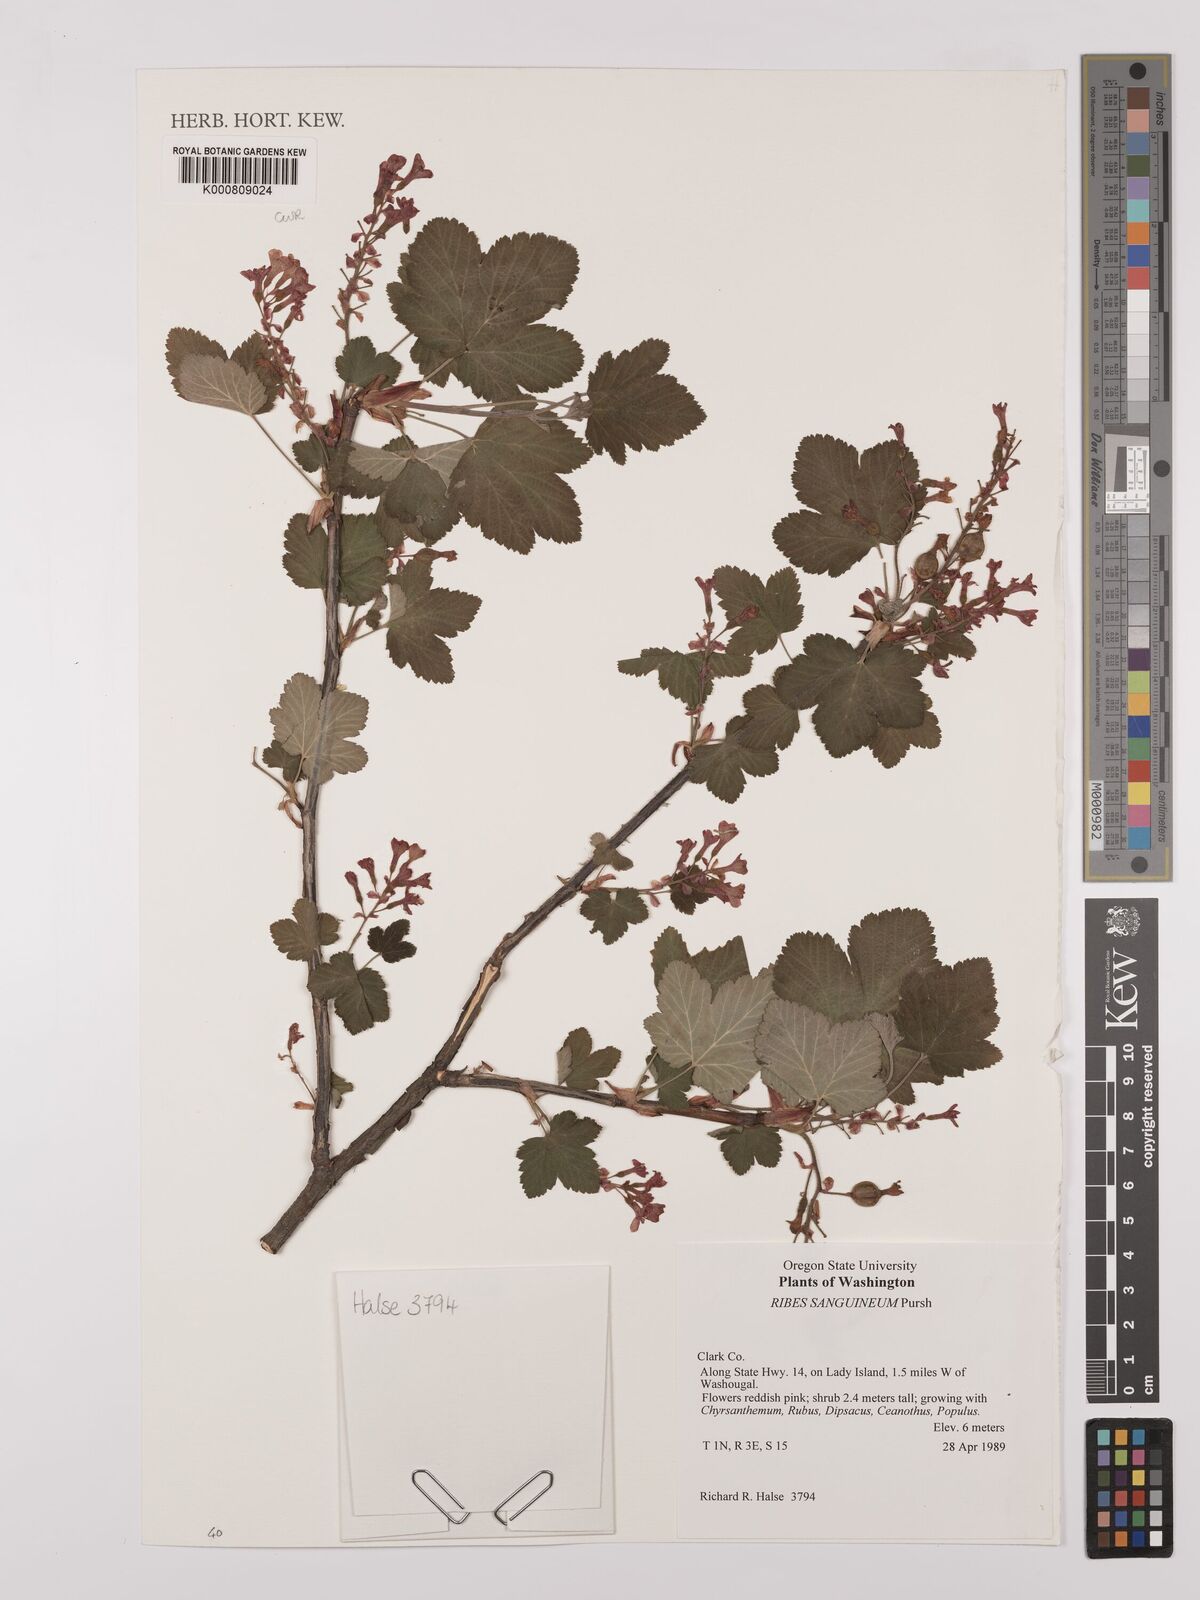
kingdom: Plantae
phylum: Tracheophyta
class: Magnoliopsida
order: Saxifragales
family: Grossulariaceae
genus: Ribes
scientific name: Ribes sanguineum
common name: Flowering currant
